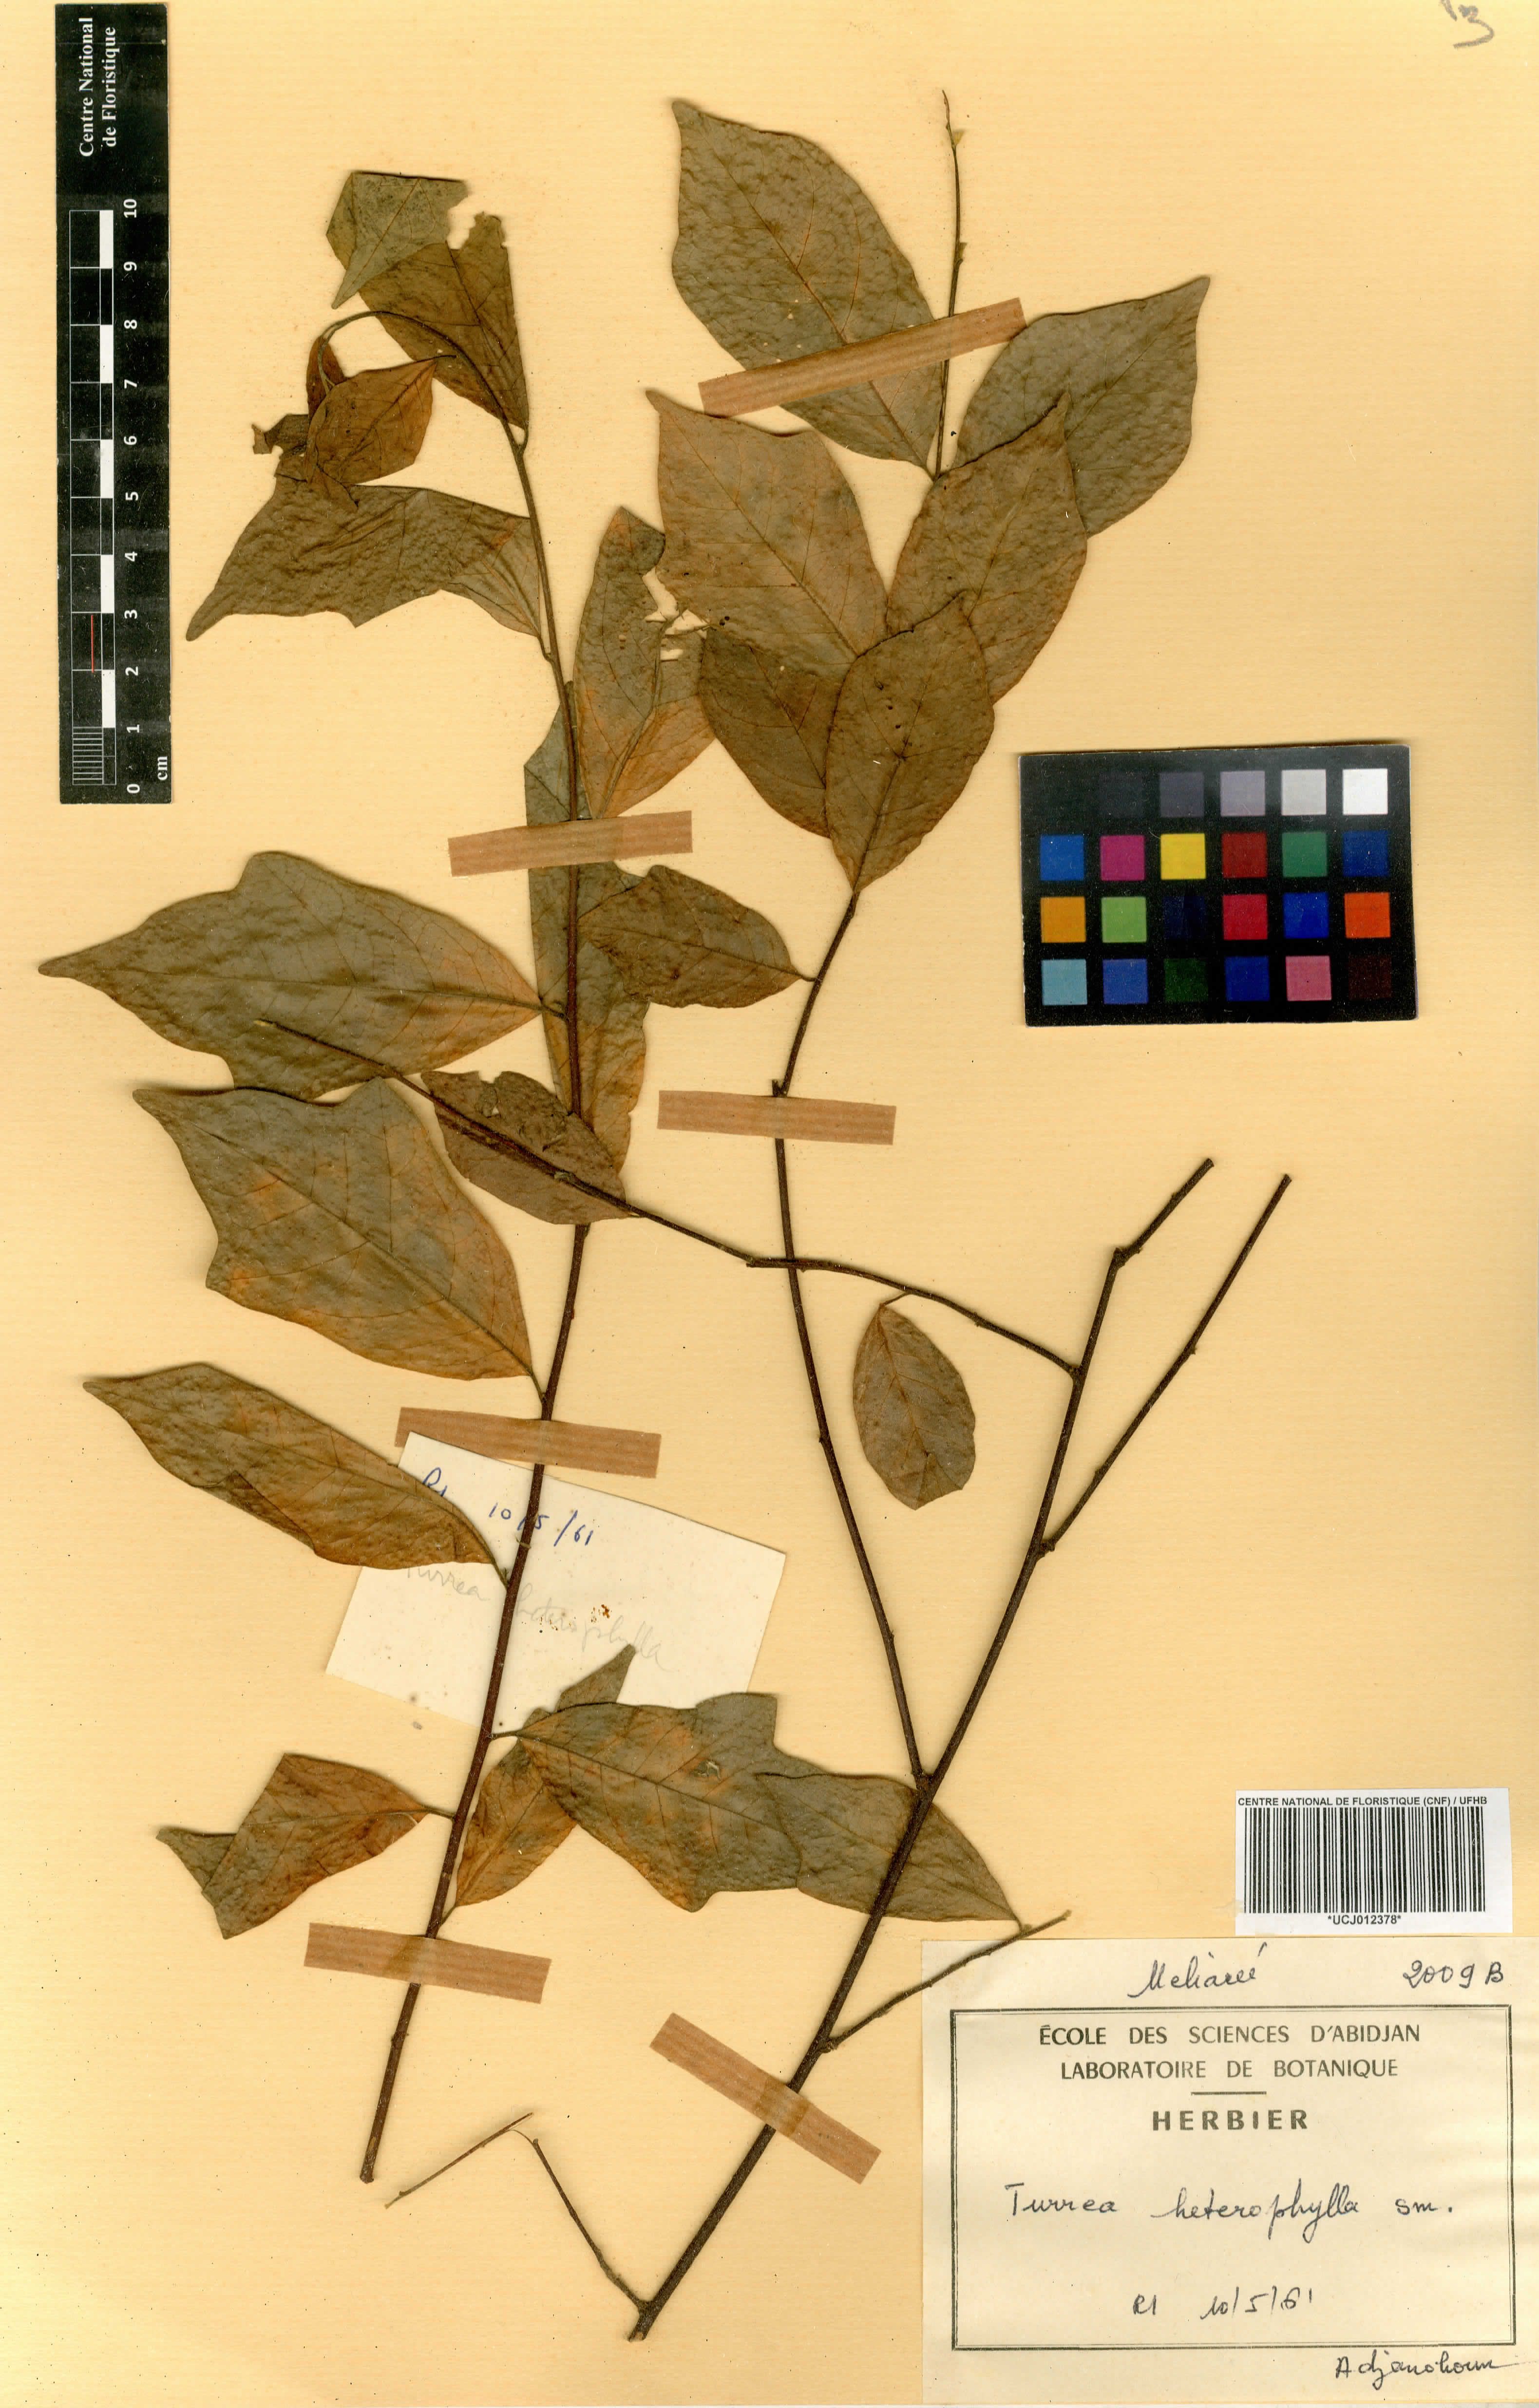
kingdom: Plantae
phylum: Tracheophyta
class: Magnoliopsida
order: Sapindales
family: Meliaceae
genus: Turraea
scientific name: Turraea heterophylla
